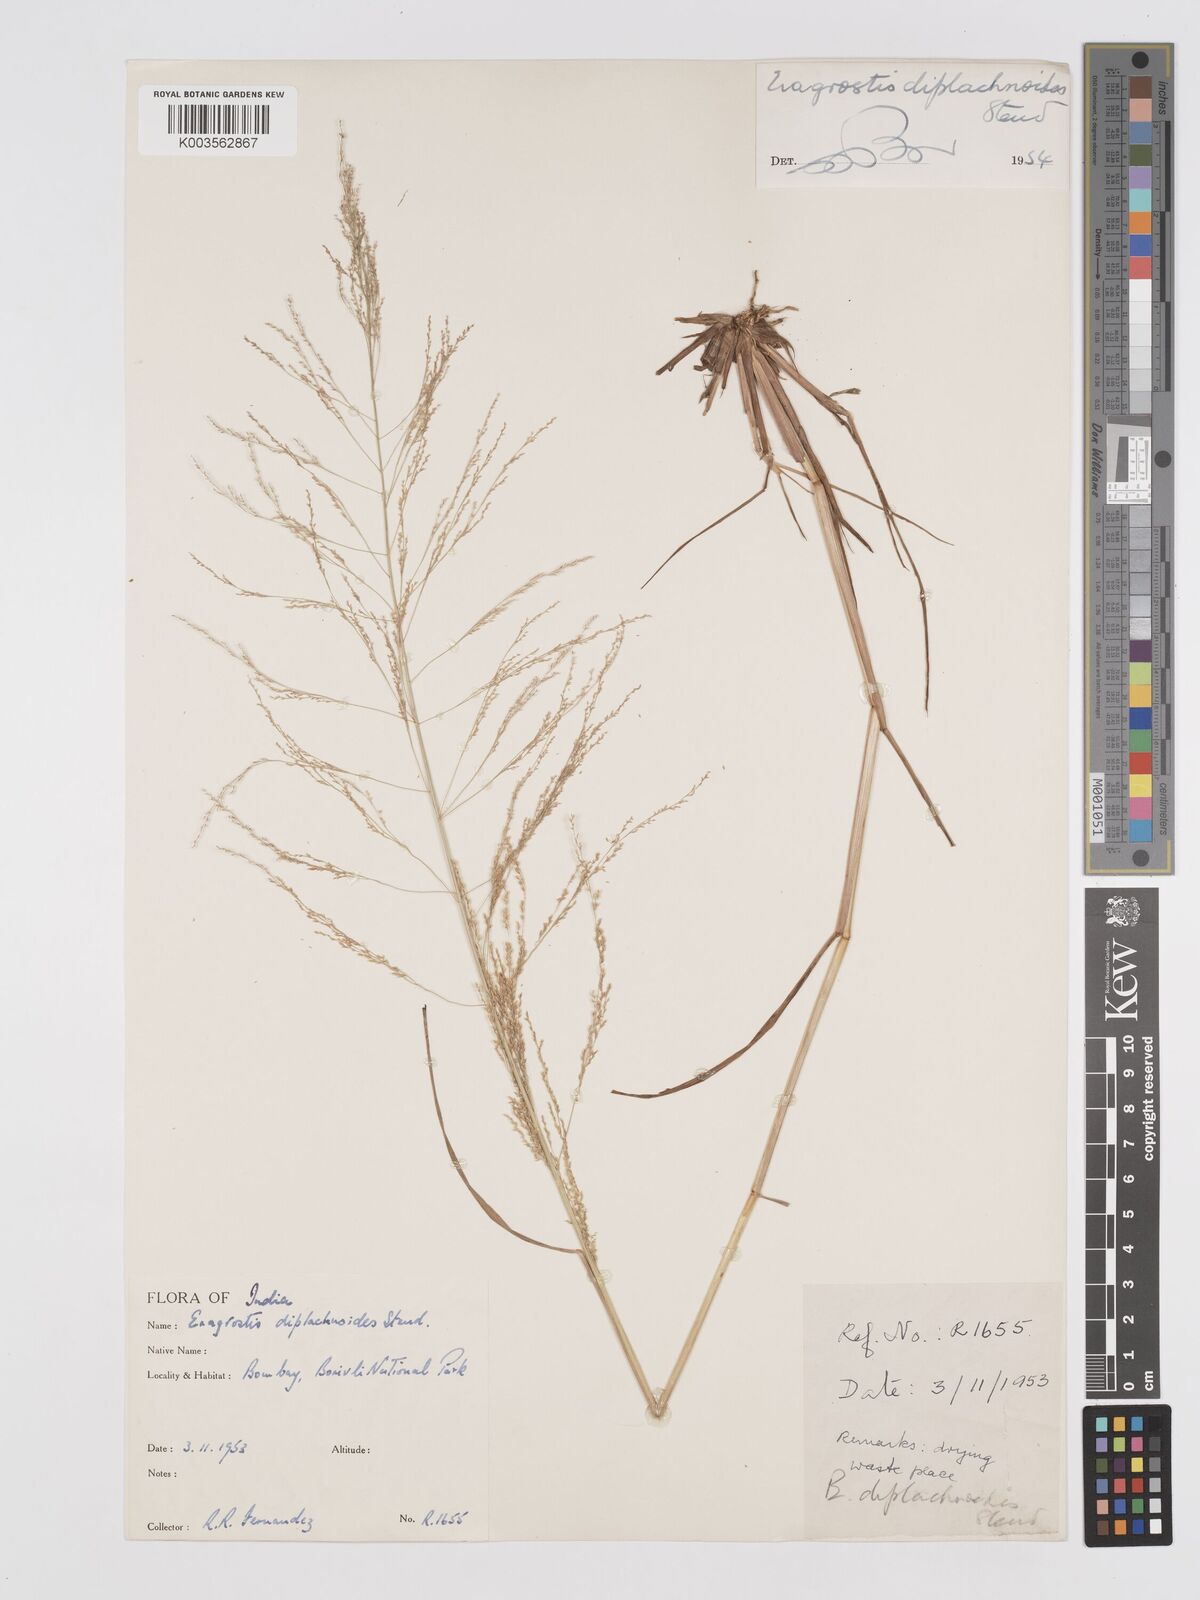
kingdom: Plantae
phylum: Tracheophyta
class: Liliopsida
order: Poales
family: Poaceae
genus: Eragrostis
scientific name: Eragrostis japonica
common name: Pond lovegrass
